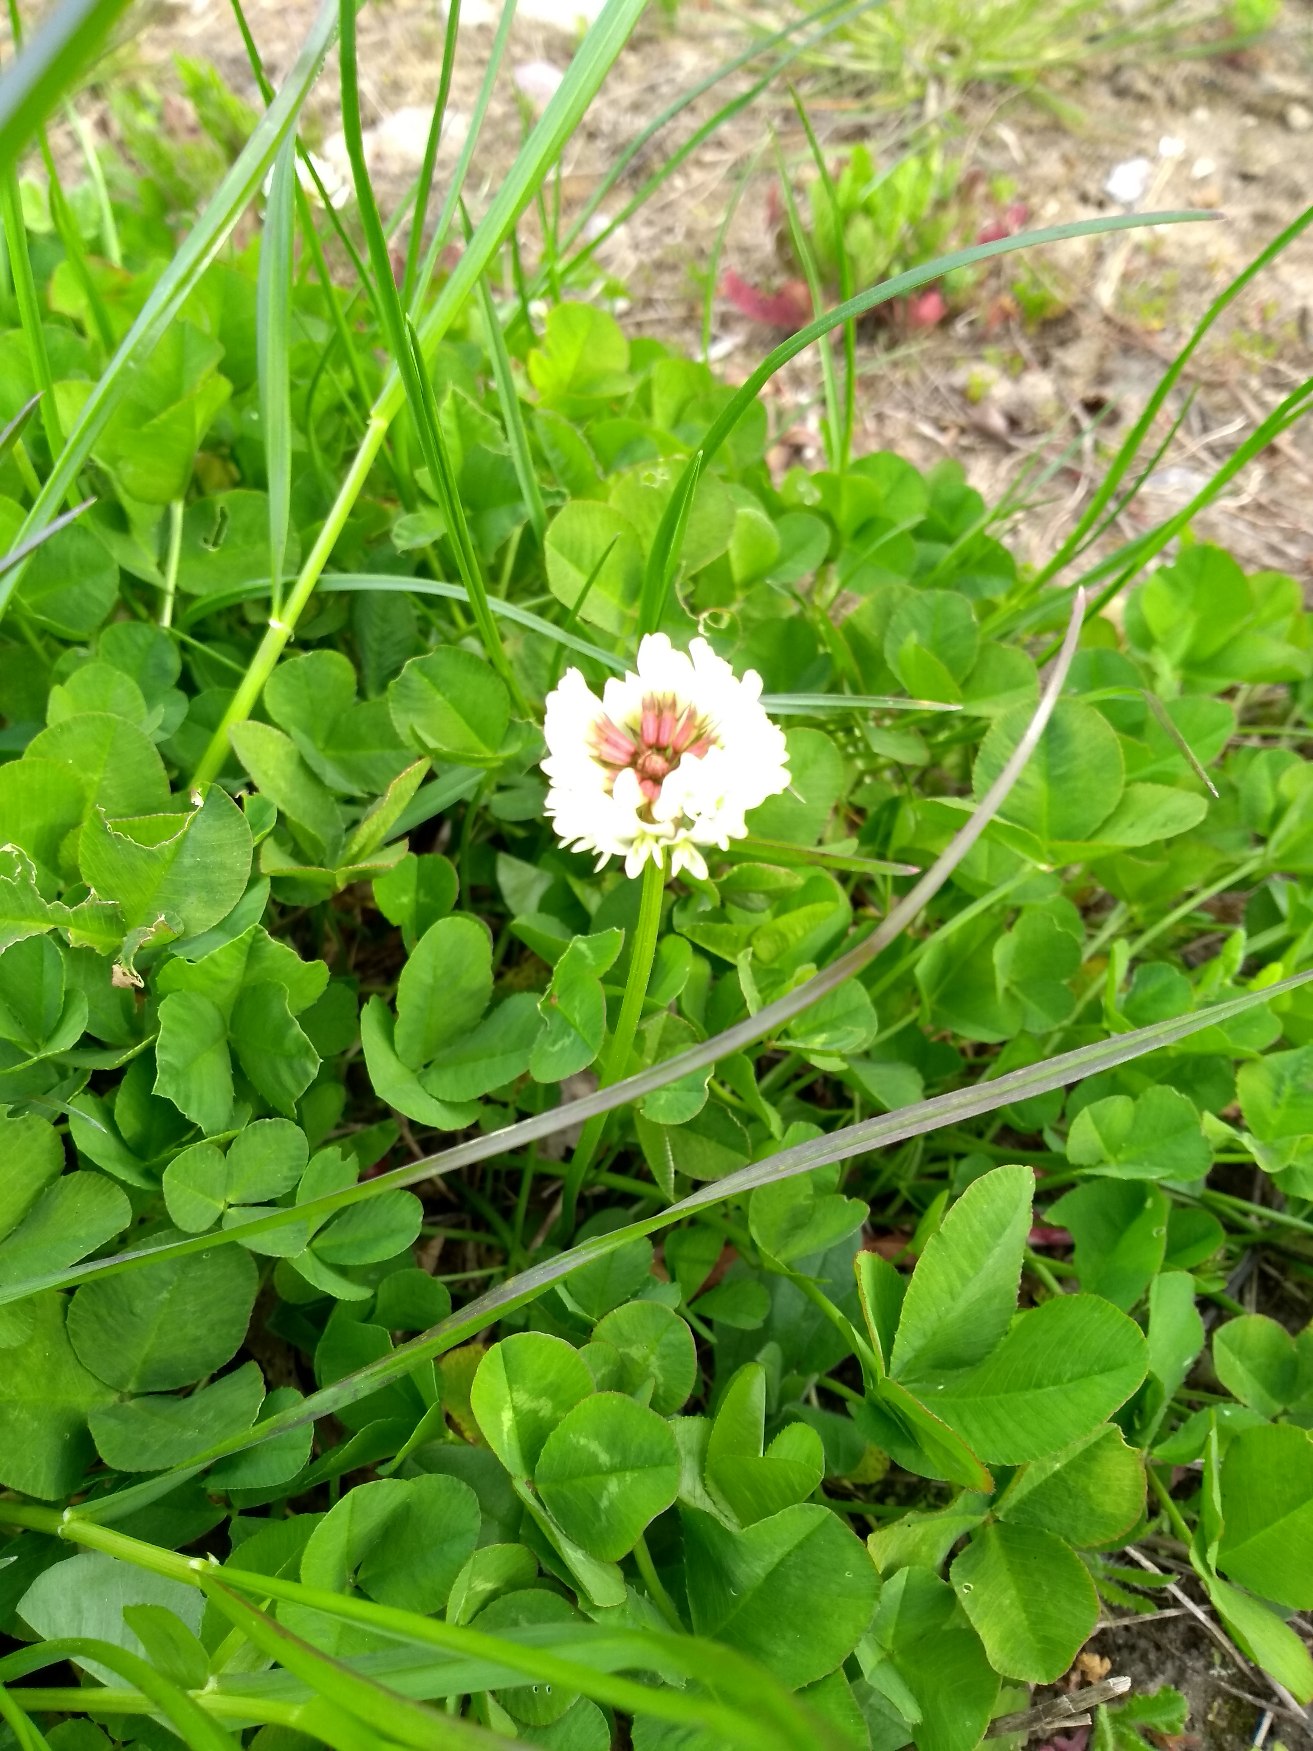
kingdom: Plantae
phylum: Tracheophyta
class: Magnoliopsida
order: Fabales
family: Fabaceae
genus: Trifolium
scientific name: Trifolium repens
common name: Hvid-kløver
